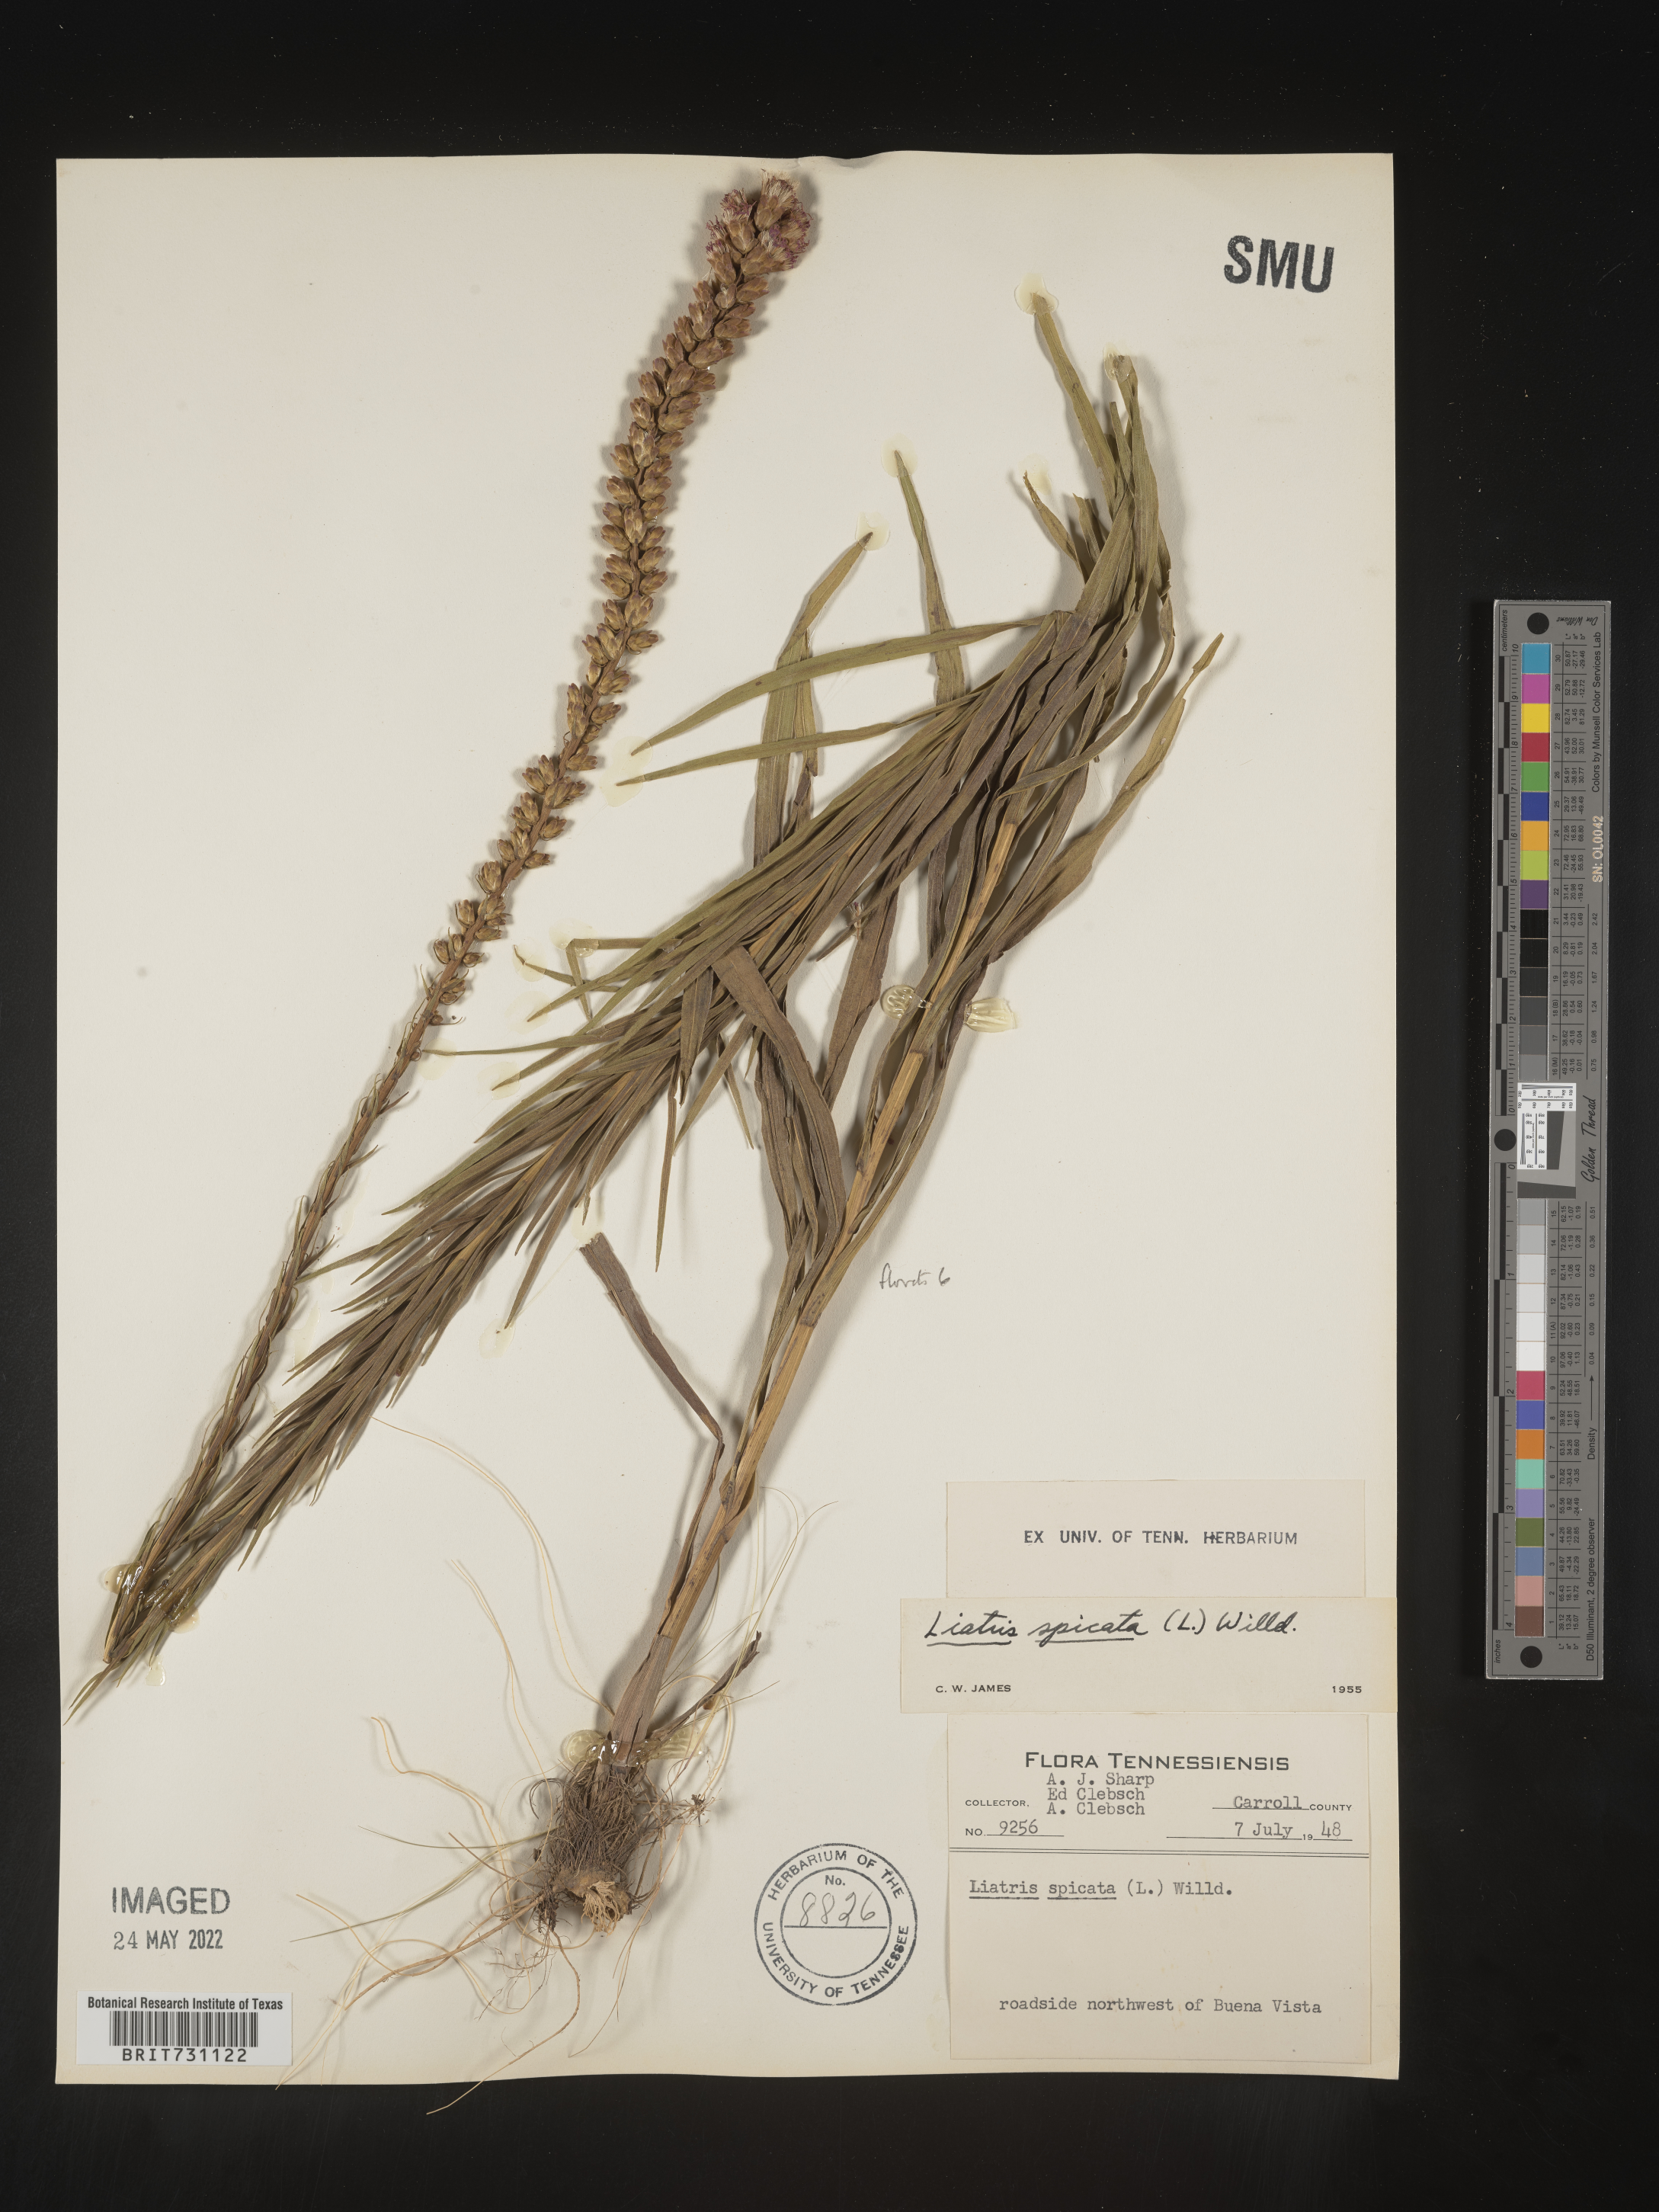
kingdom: Plantae
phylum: Tracheophyta
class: Magnoliopsida
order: Asterales
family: Asteraceae
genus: Liatris
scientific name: Liatris spicata
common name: Florist gayfeather
